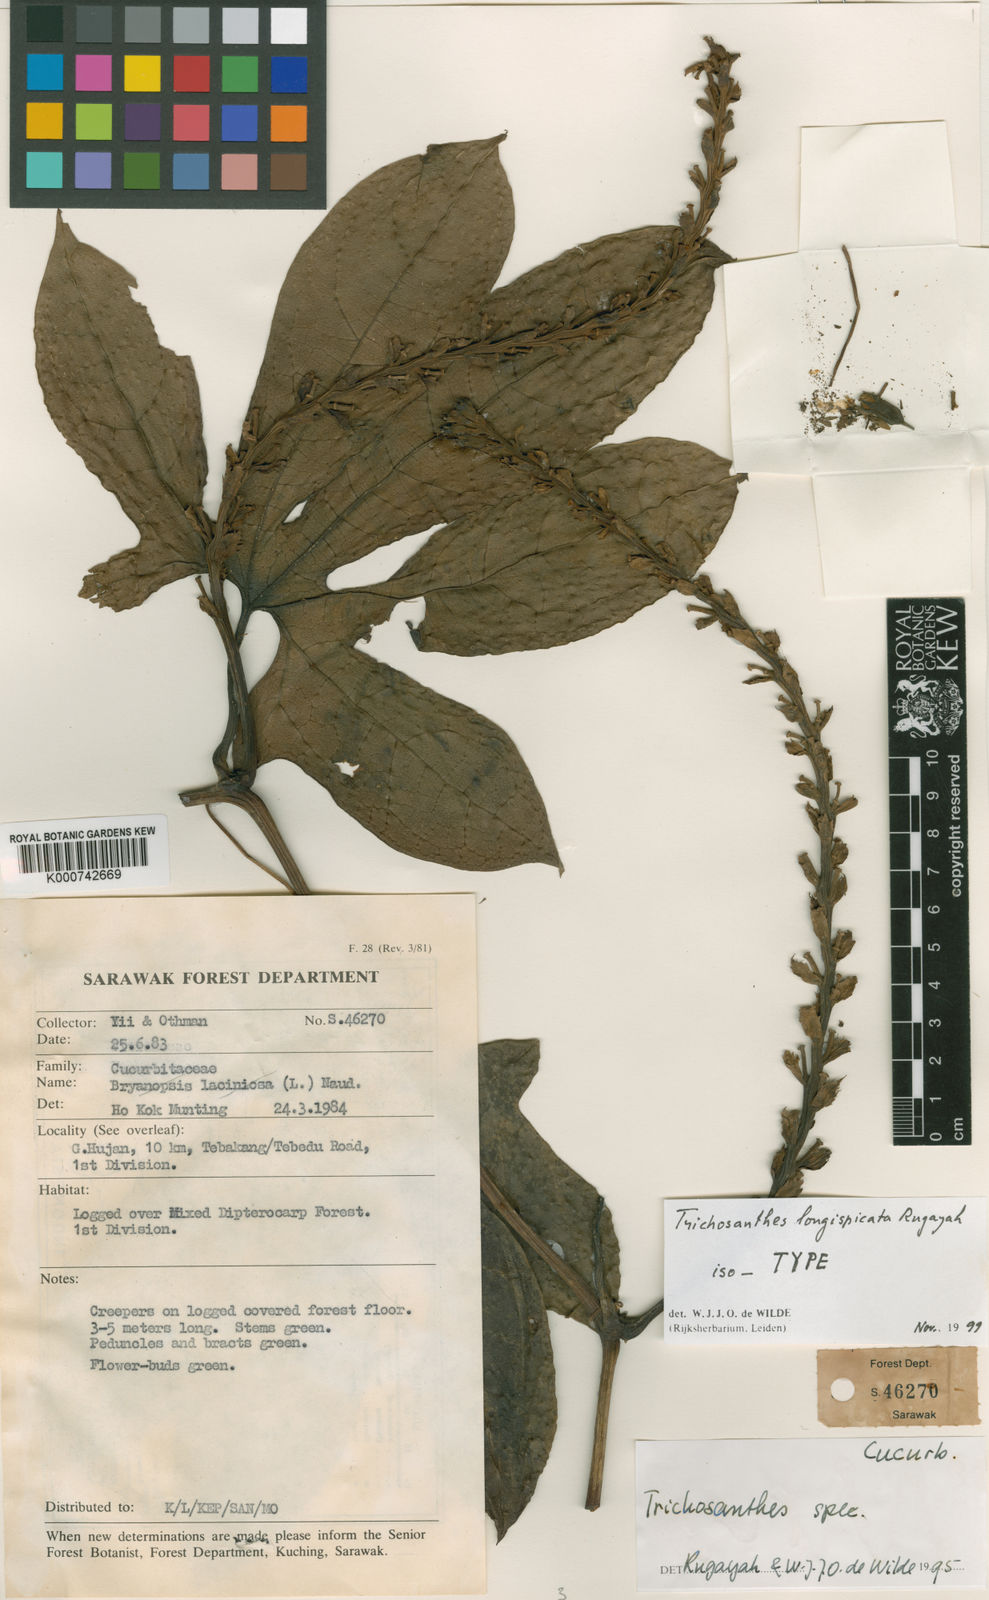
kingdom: Plantae
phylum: Tracheophyta
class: Magnoliopsida
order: Cucurbitales
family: Cucurbitaceae
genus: Trichosanthes
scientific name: Trichosanthes longispicata
